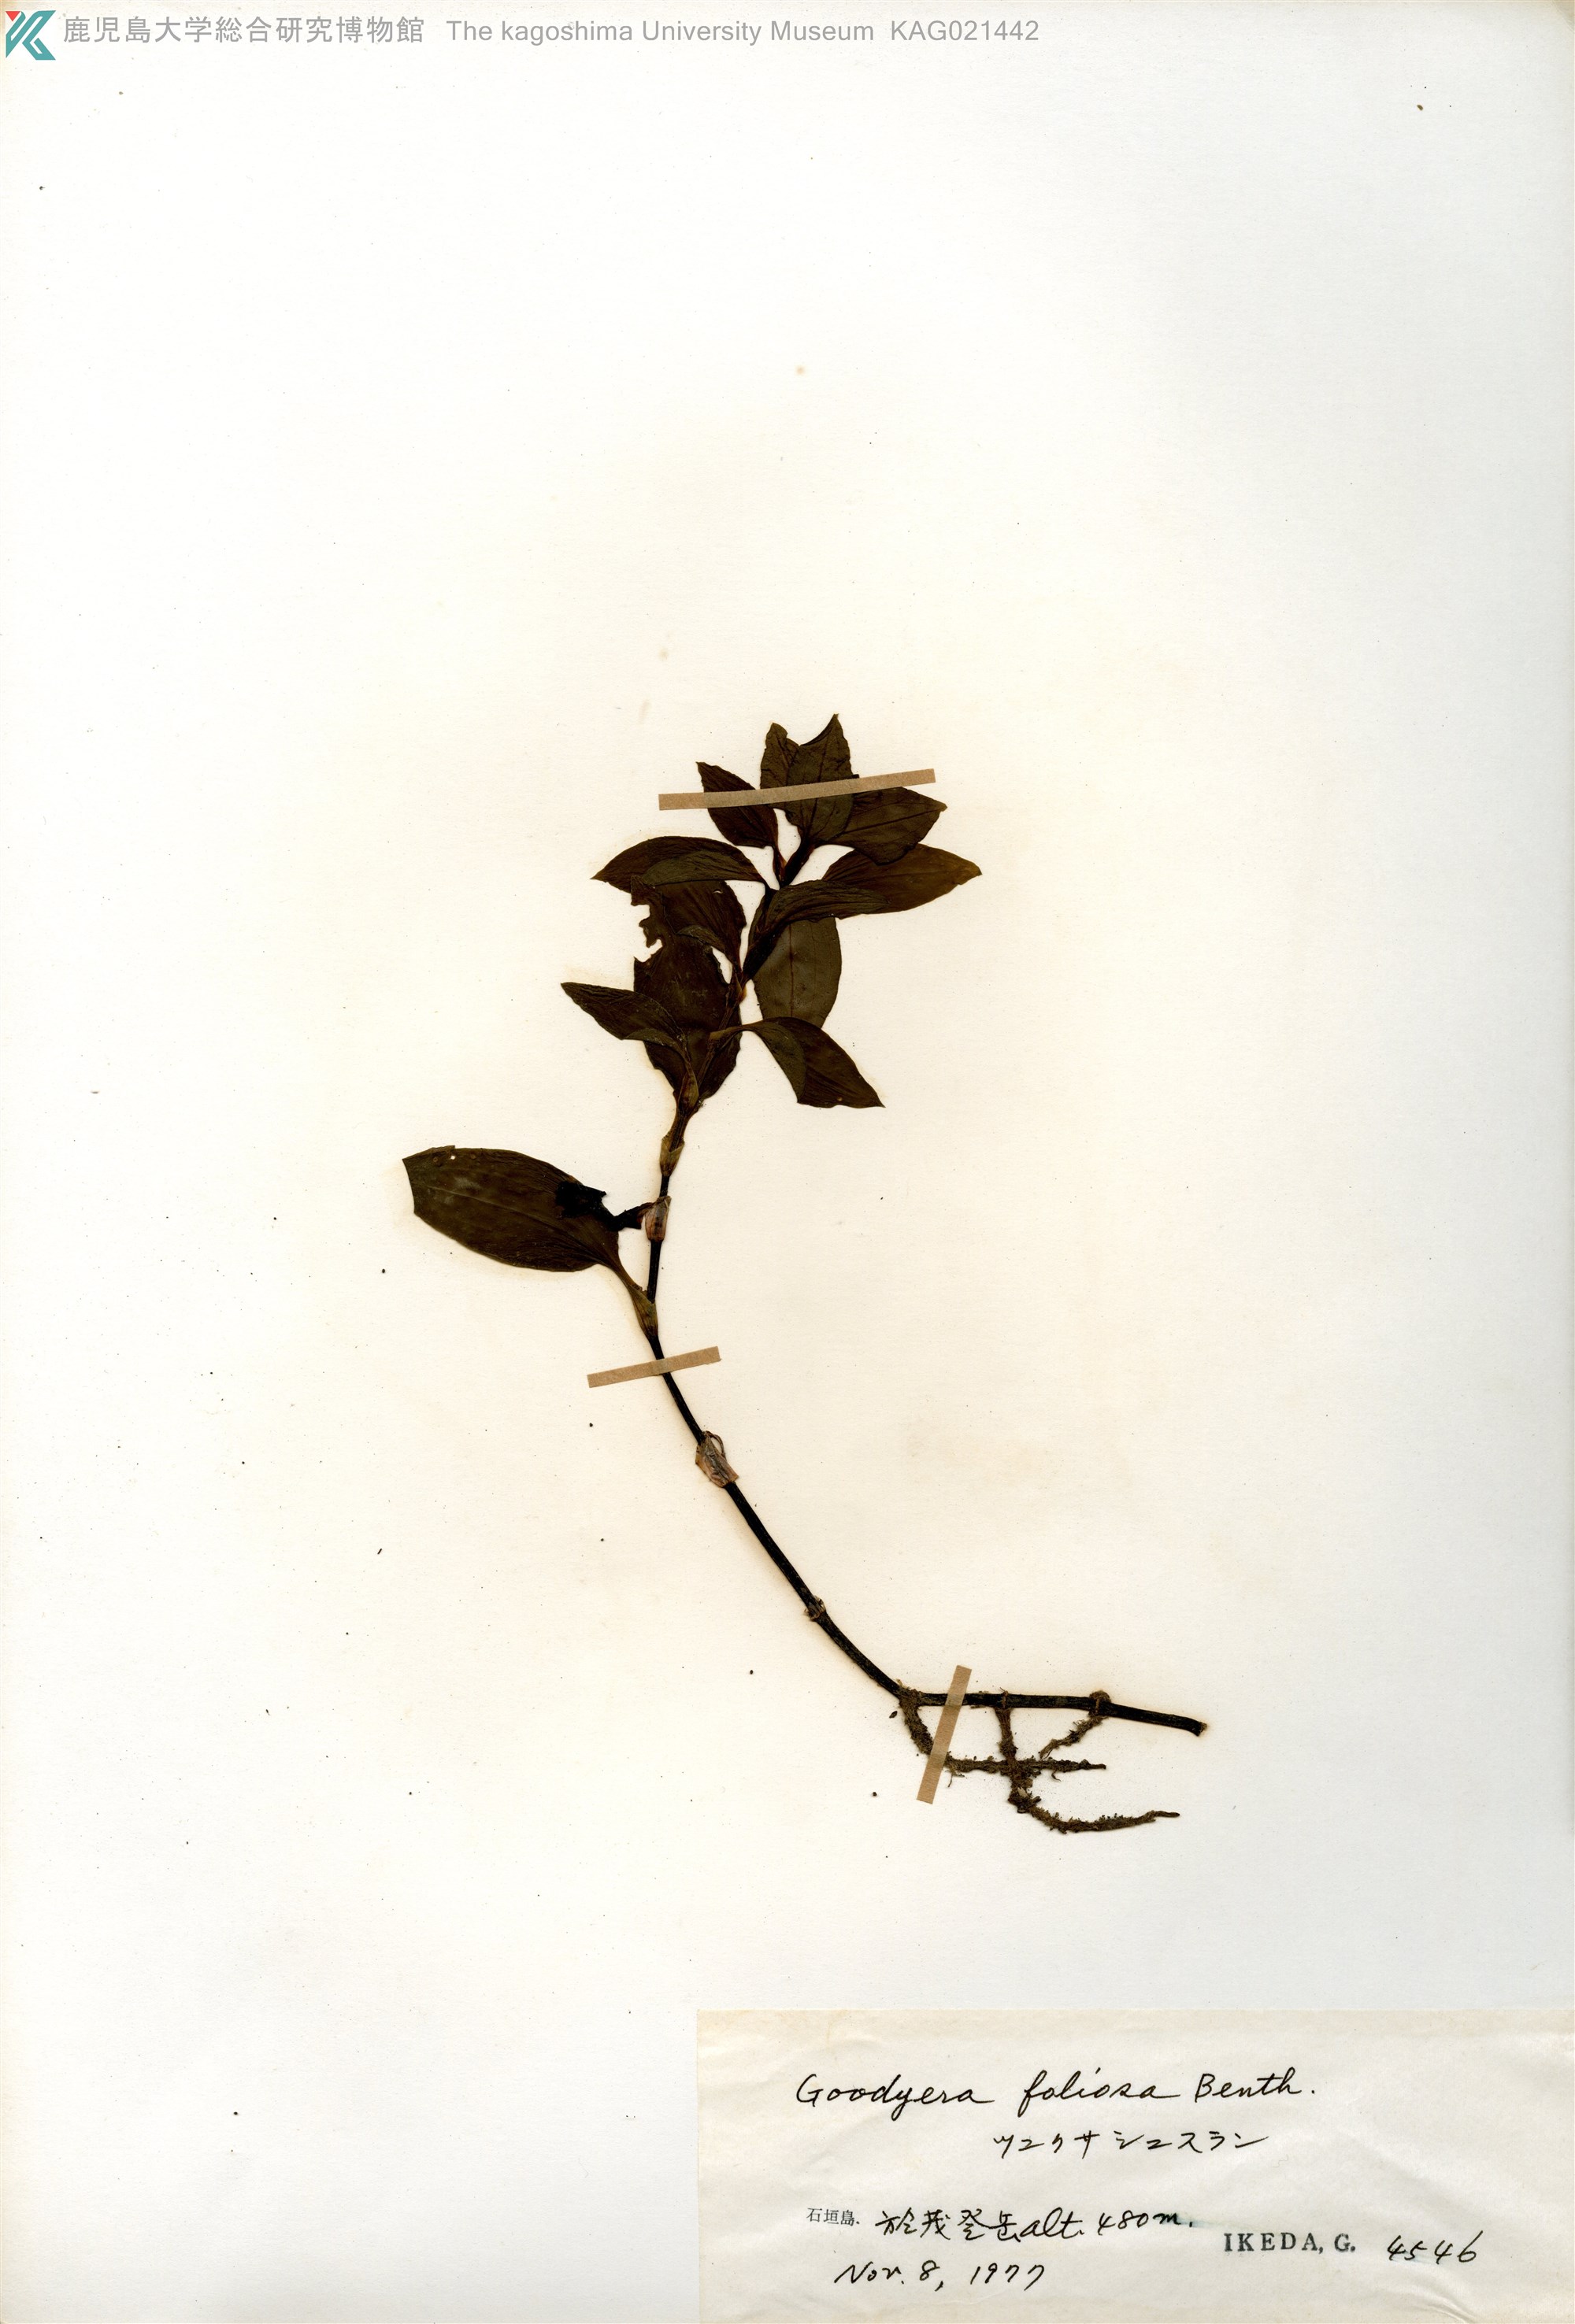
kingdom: Plantae
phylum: Tracheophyta
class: Liliopsida
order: Asparagales
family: Orchidaceae
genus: Goodyera
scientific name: Goodyera foliosa
